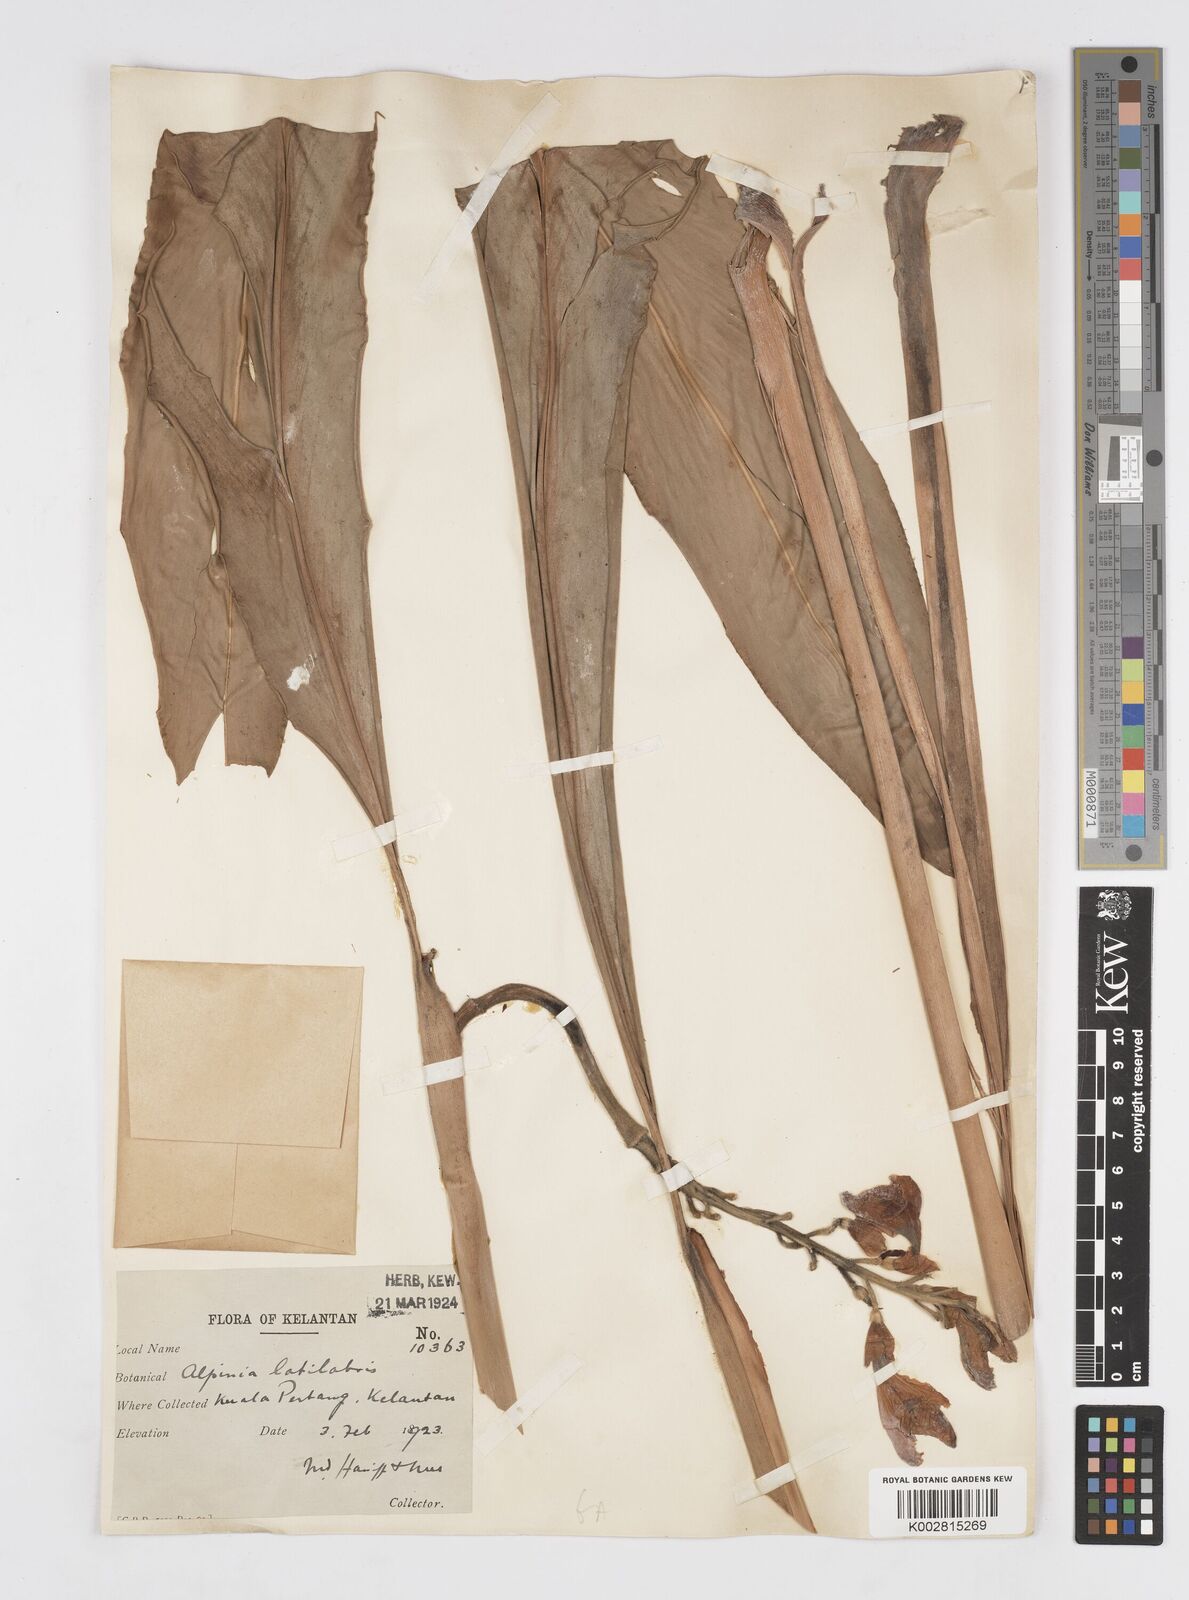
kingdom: Plantae
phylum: Tracheophyta
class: Liliopsida
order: Zingiberales
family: Zingiberaceae
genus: Alpinia
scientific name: Alpinia latilabris
